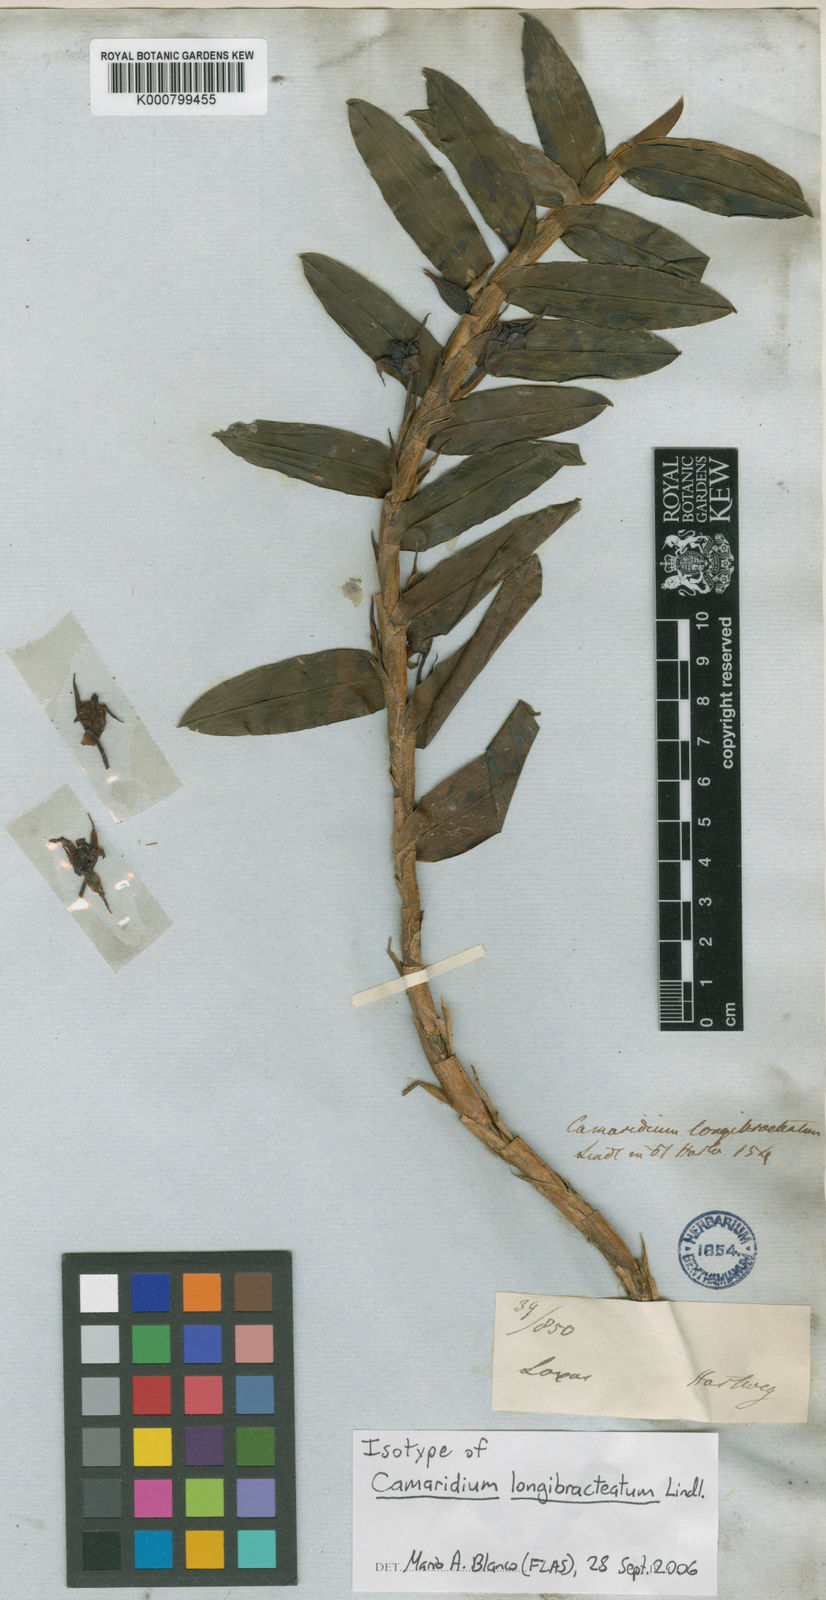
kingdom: Plantae
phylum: Tracheophyta
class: Liliopsida
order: Asparagales
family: Orchidaceae
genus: Maxillaria
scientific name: Maxillaria longibracteata
